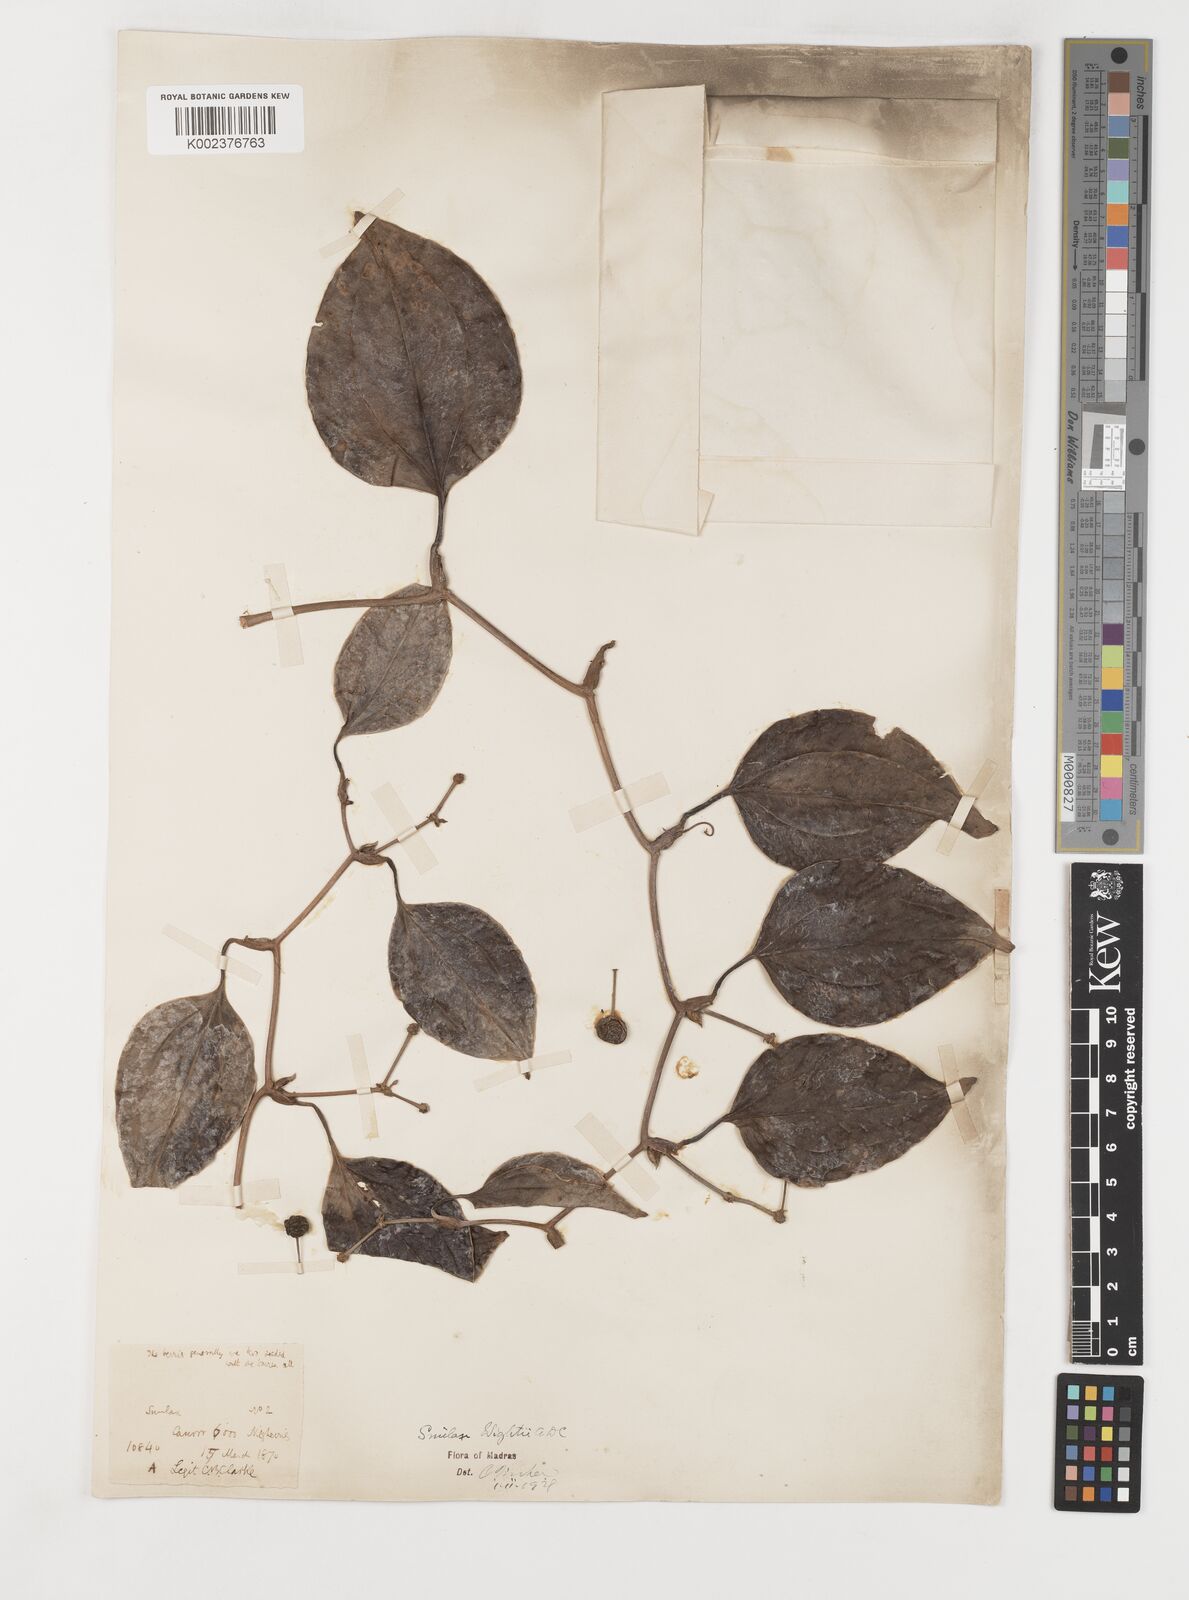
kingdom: Plantae
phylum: Tracheophyta
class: Liliopsida
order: Liliales
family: Smilacaceae
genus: Smilax
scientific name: Smilax wightii
